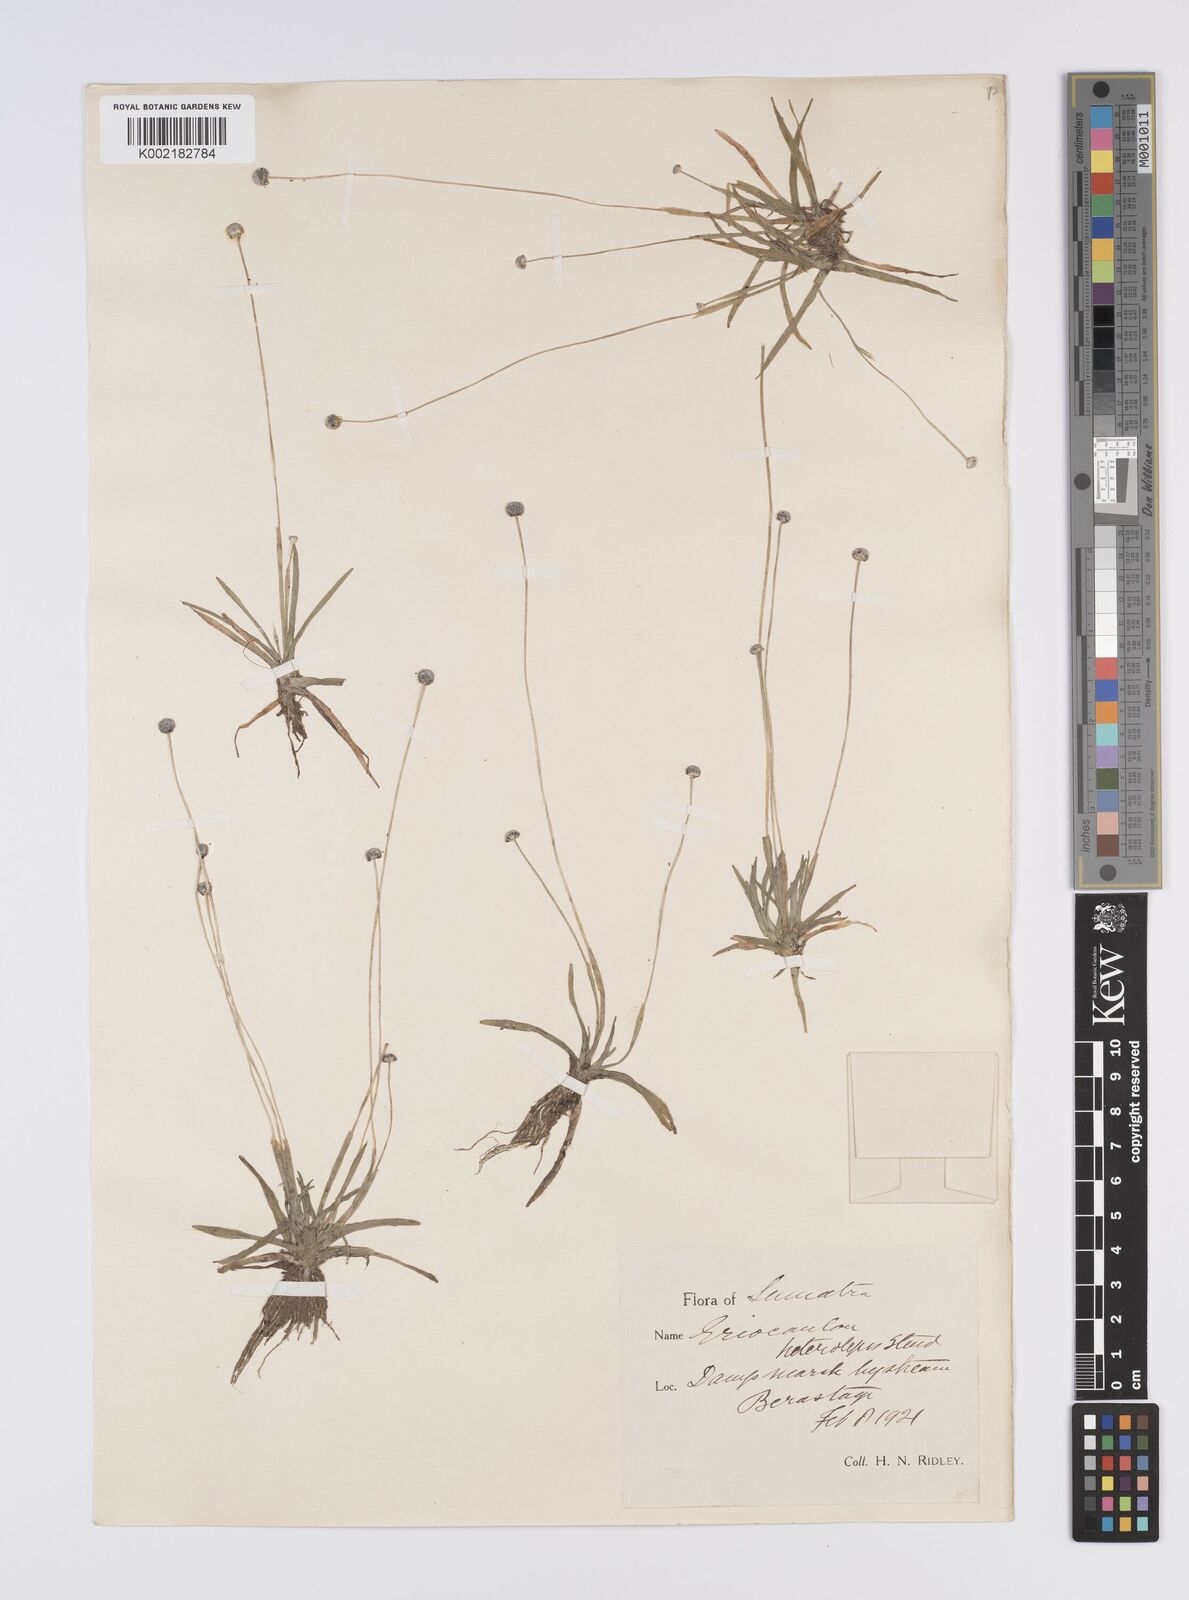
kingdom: Plantae
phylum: Tracheophyta
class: Liliopsida
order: Poales
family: Eriocaulaceae
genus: Eriocaulon
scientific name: Eriocaulon heterolepis
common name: Buttonhead pipewort
